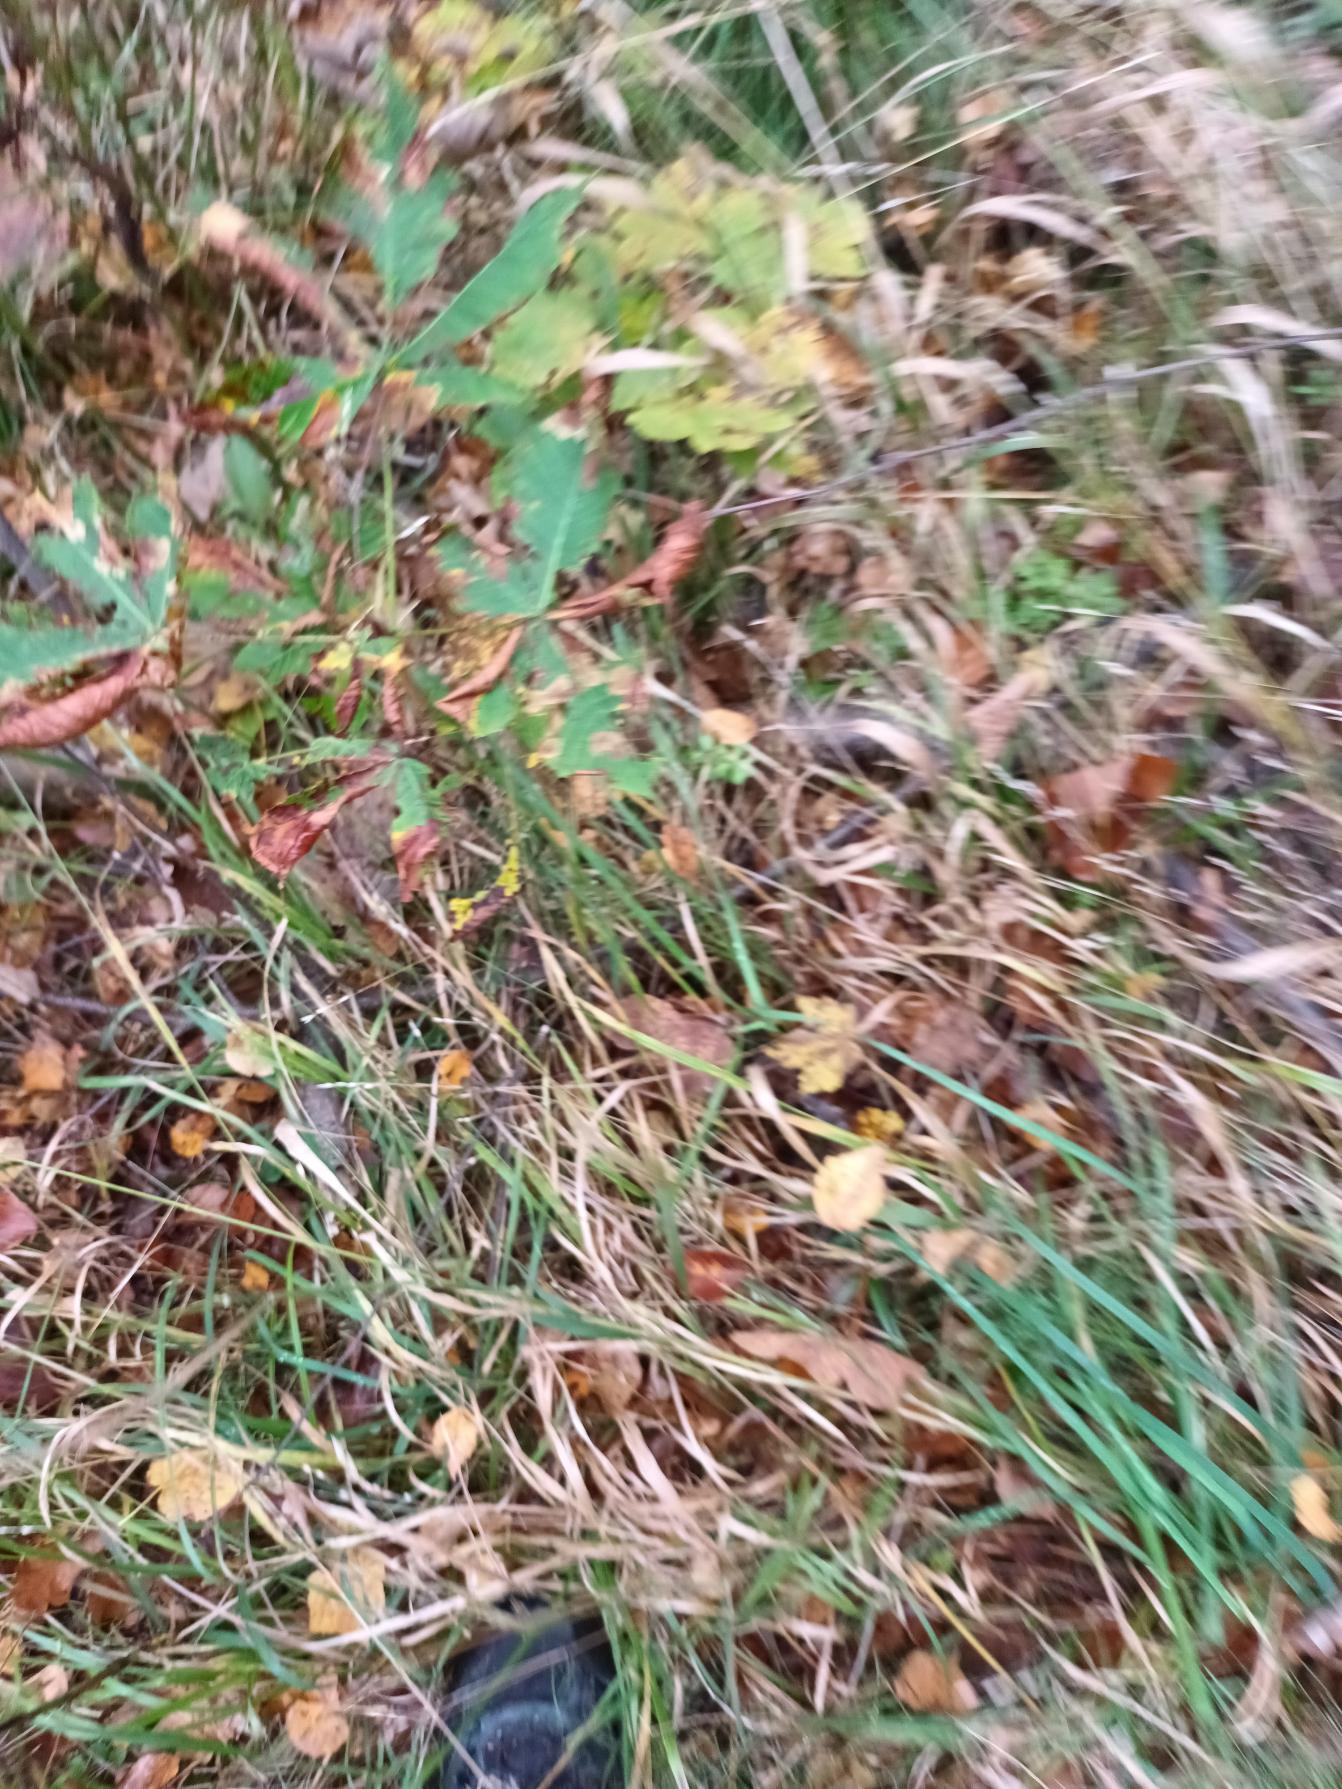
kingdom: Plantae
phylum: Tracheophyta
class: Magnoliopsida
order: Sapindales
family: Sapindaceae
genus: Aesculus
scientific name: Aesculus hippocastanum
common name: Hestekastanie
